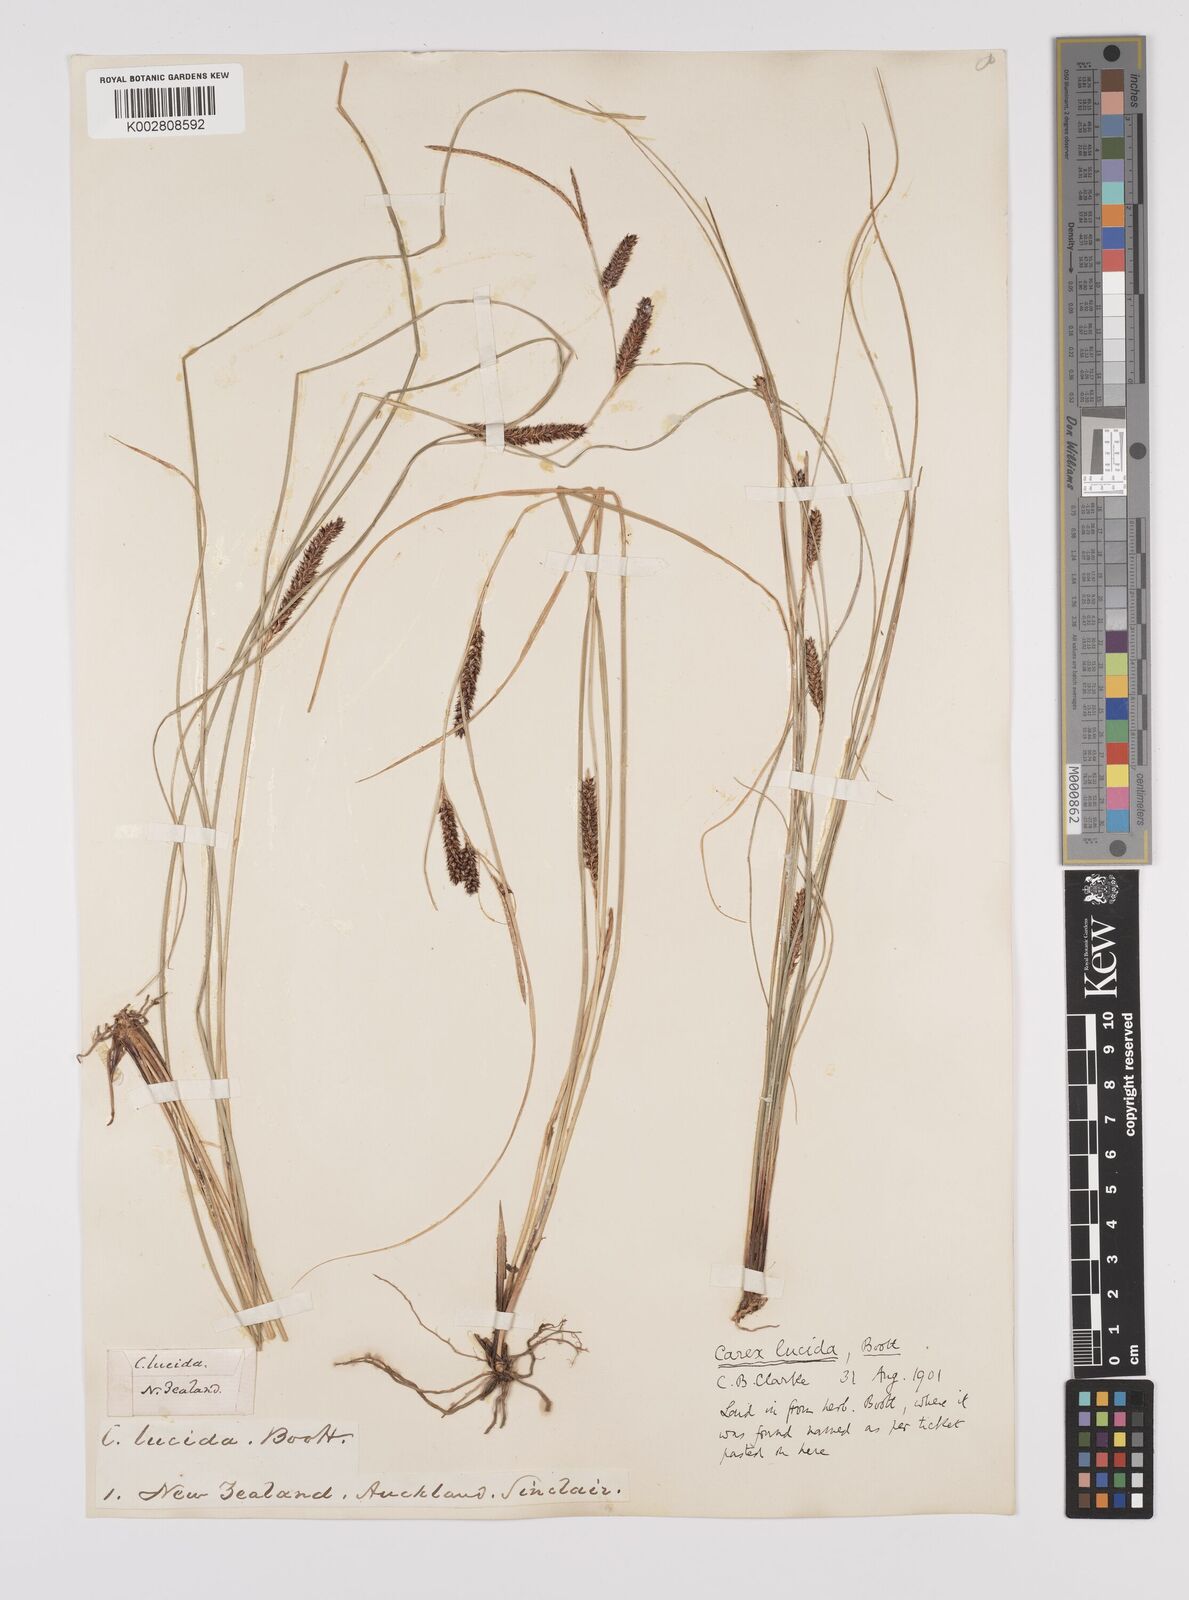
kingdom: Plantae
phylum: Tracheophyta
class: Liliopsida
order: Poales
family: Cyperaceae
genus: Carex
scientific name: Carex flagellifera
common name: Glen murray tussock
